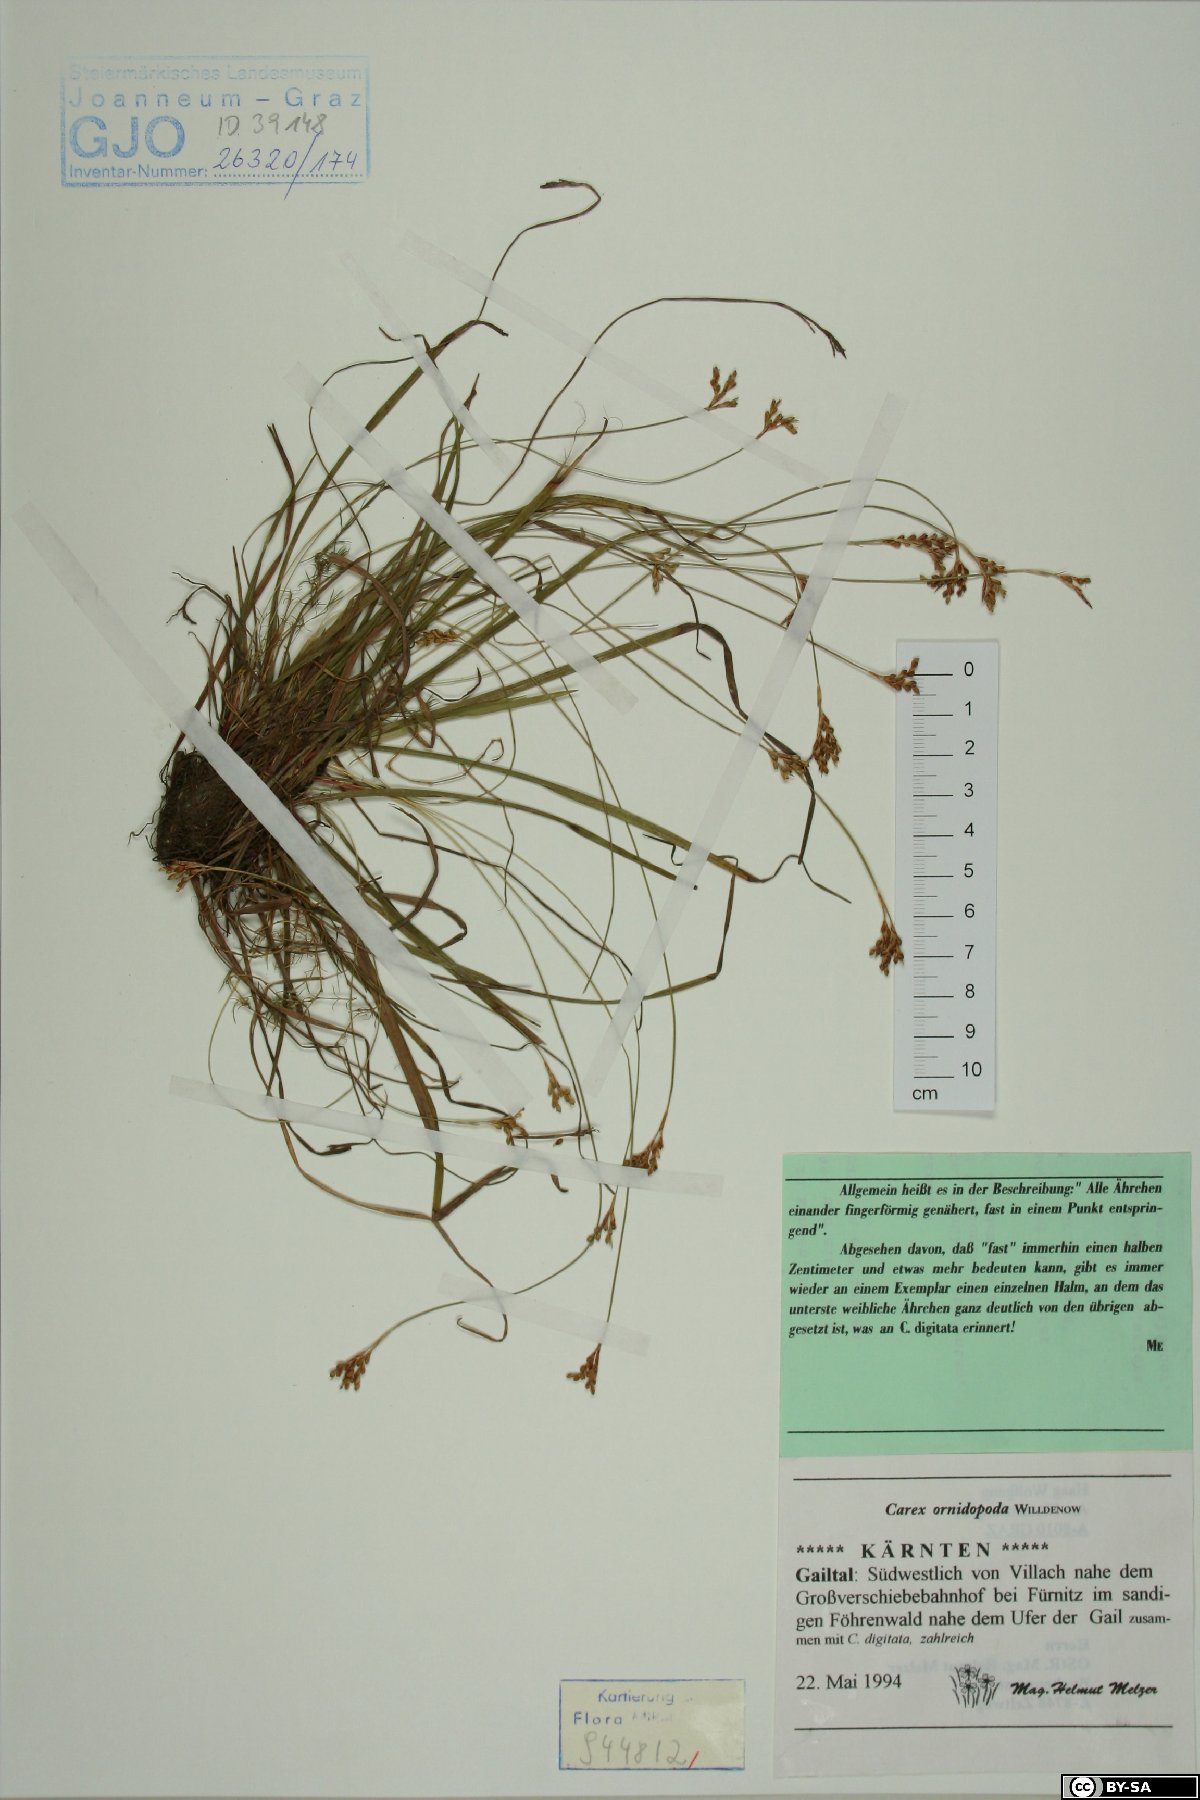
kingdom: Plantae
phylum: Tracheophyta
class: Liliopsida
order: Poales
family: Cyperaceae
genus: Carex
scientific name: Carex ornithopoda
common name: Bird's-foot sedge
